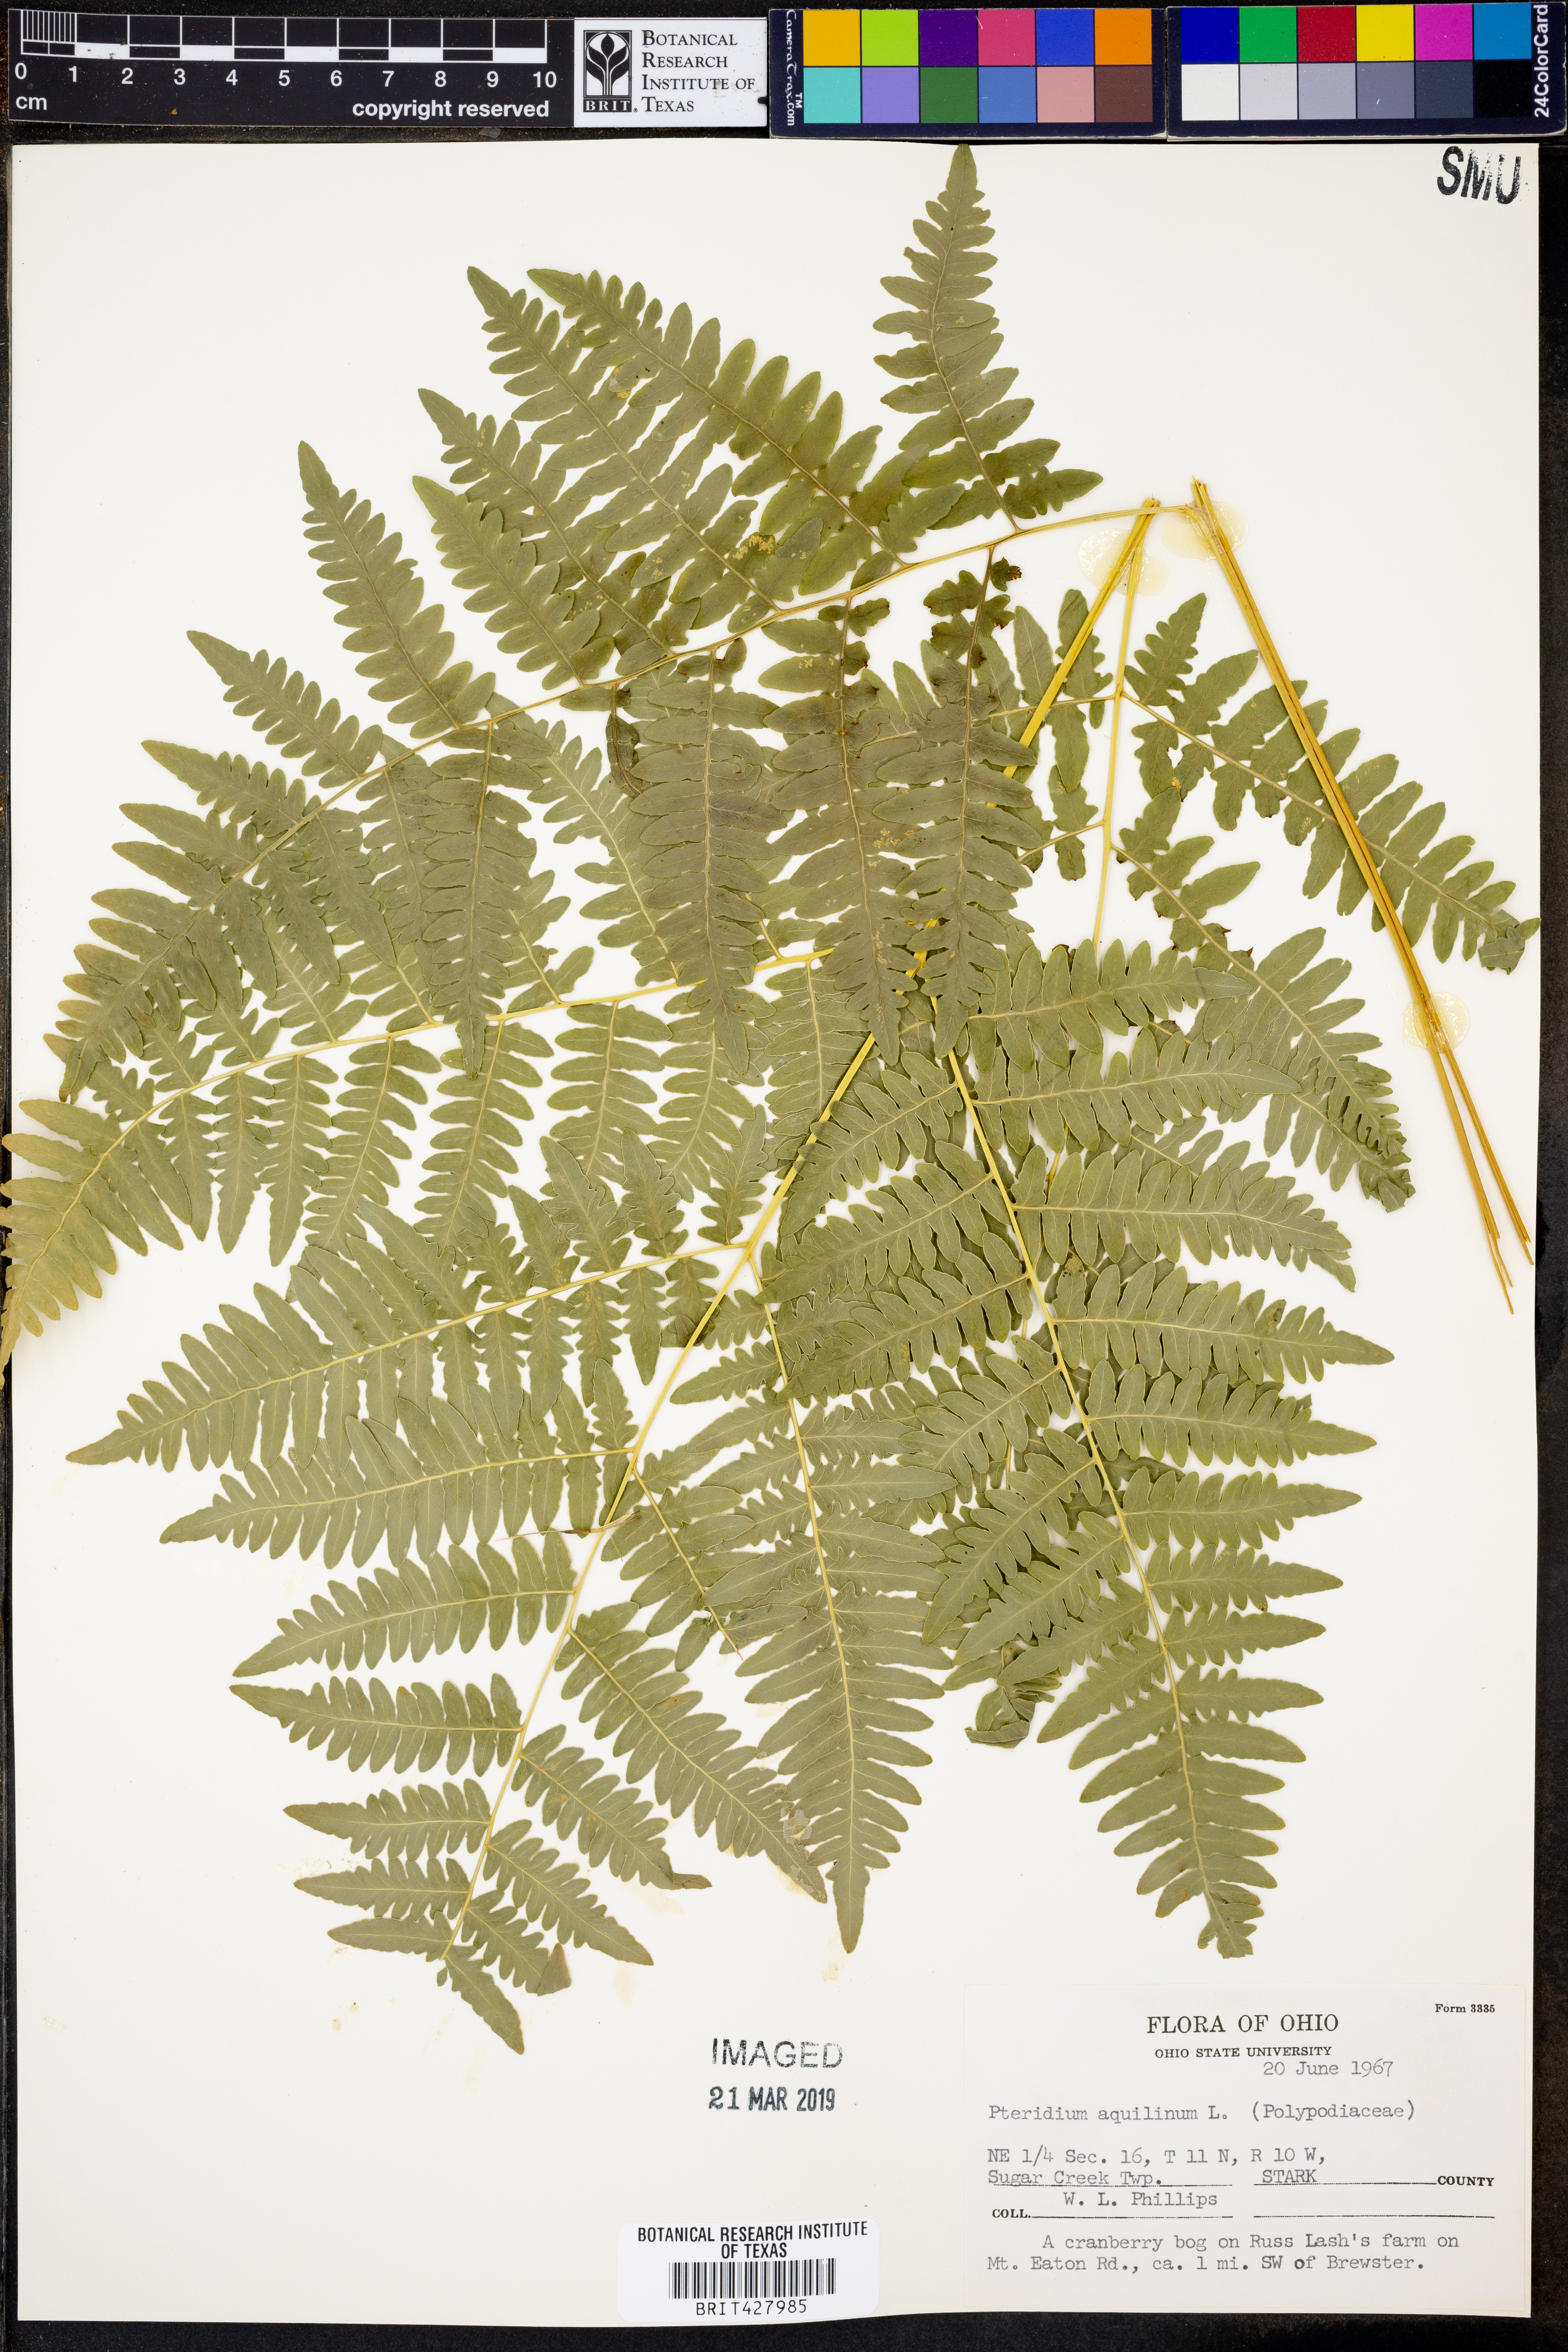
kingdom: Plantae
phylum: Tracheophyta
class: Polypodiopsida
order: Polypodiales
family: Dennstaedtiaceae
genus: Pteridium
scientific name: Pteridium aquilinum
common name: Bracken
